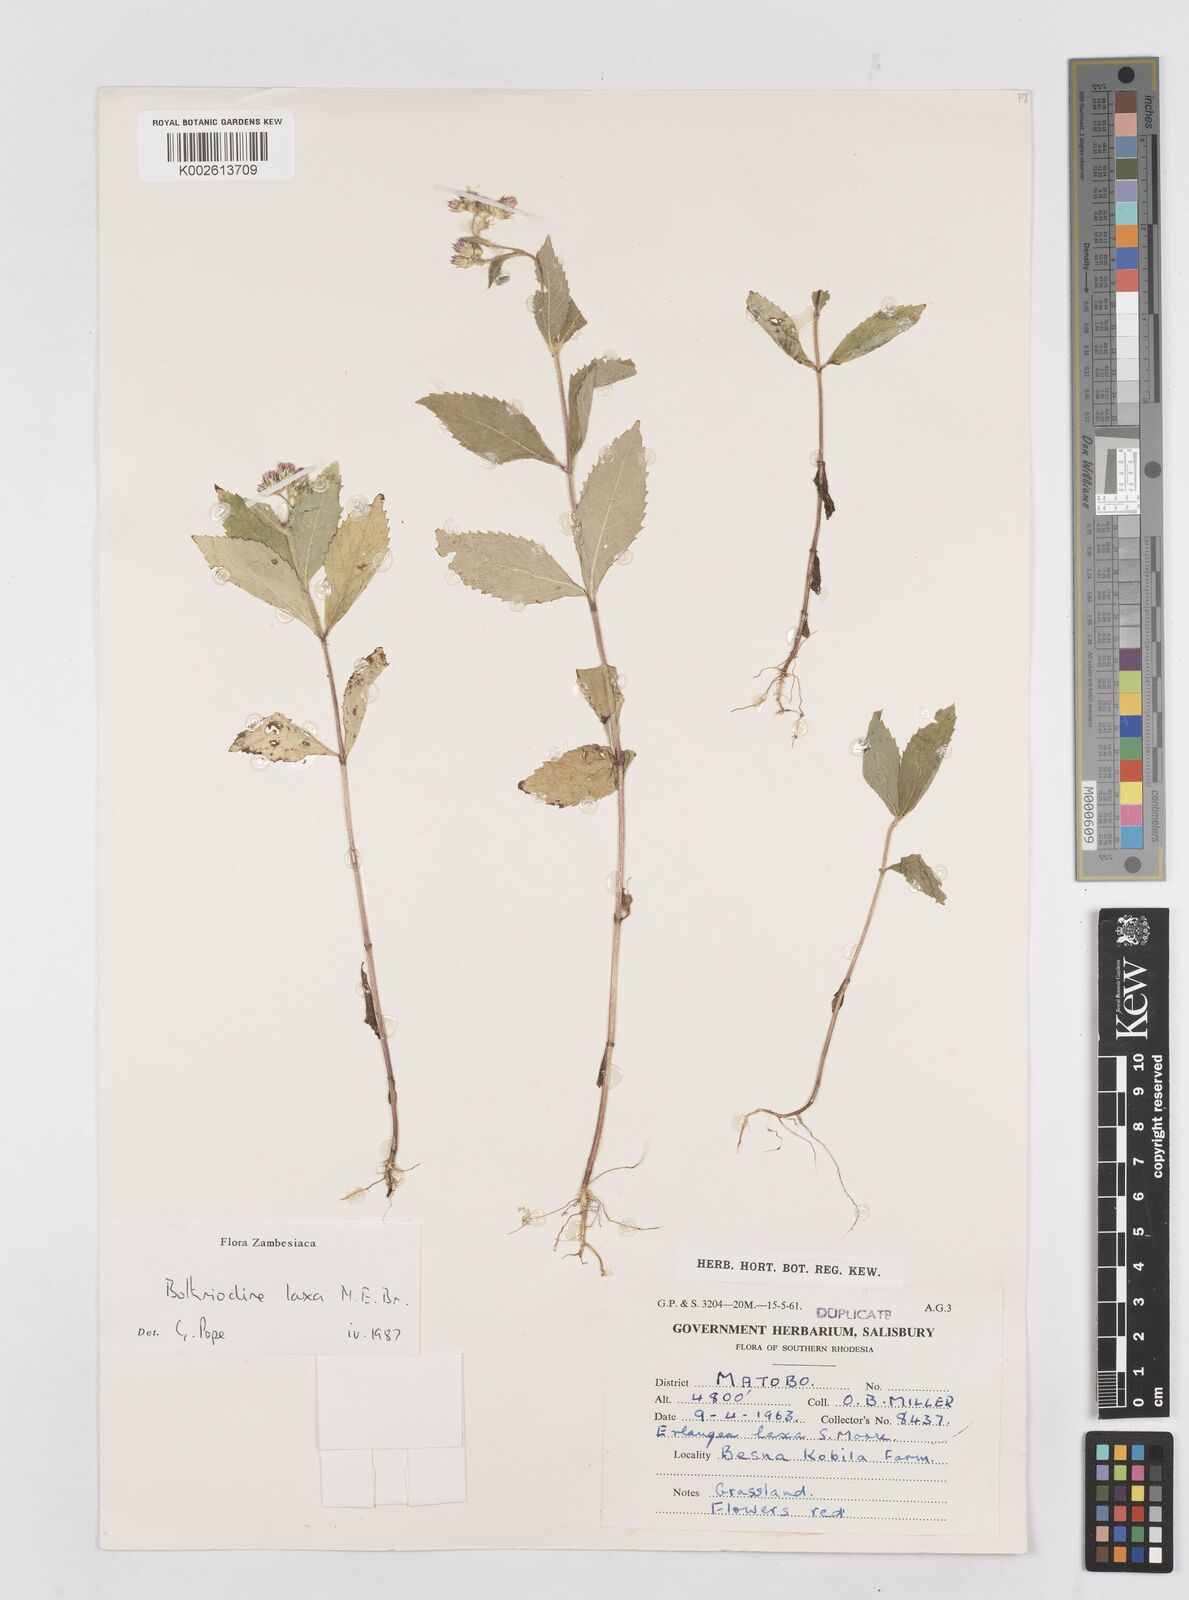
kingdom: Plantae
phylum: Tracheophyta
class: Magnoliopsida
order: Asterales
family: Asteraceae
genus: Bothriocline
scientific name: Bothriocline laxa
